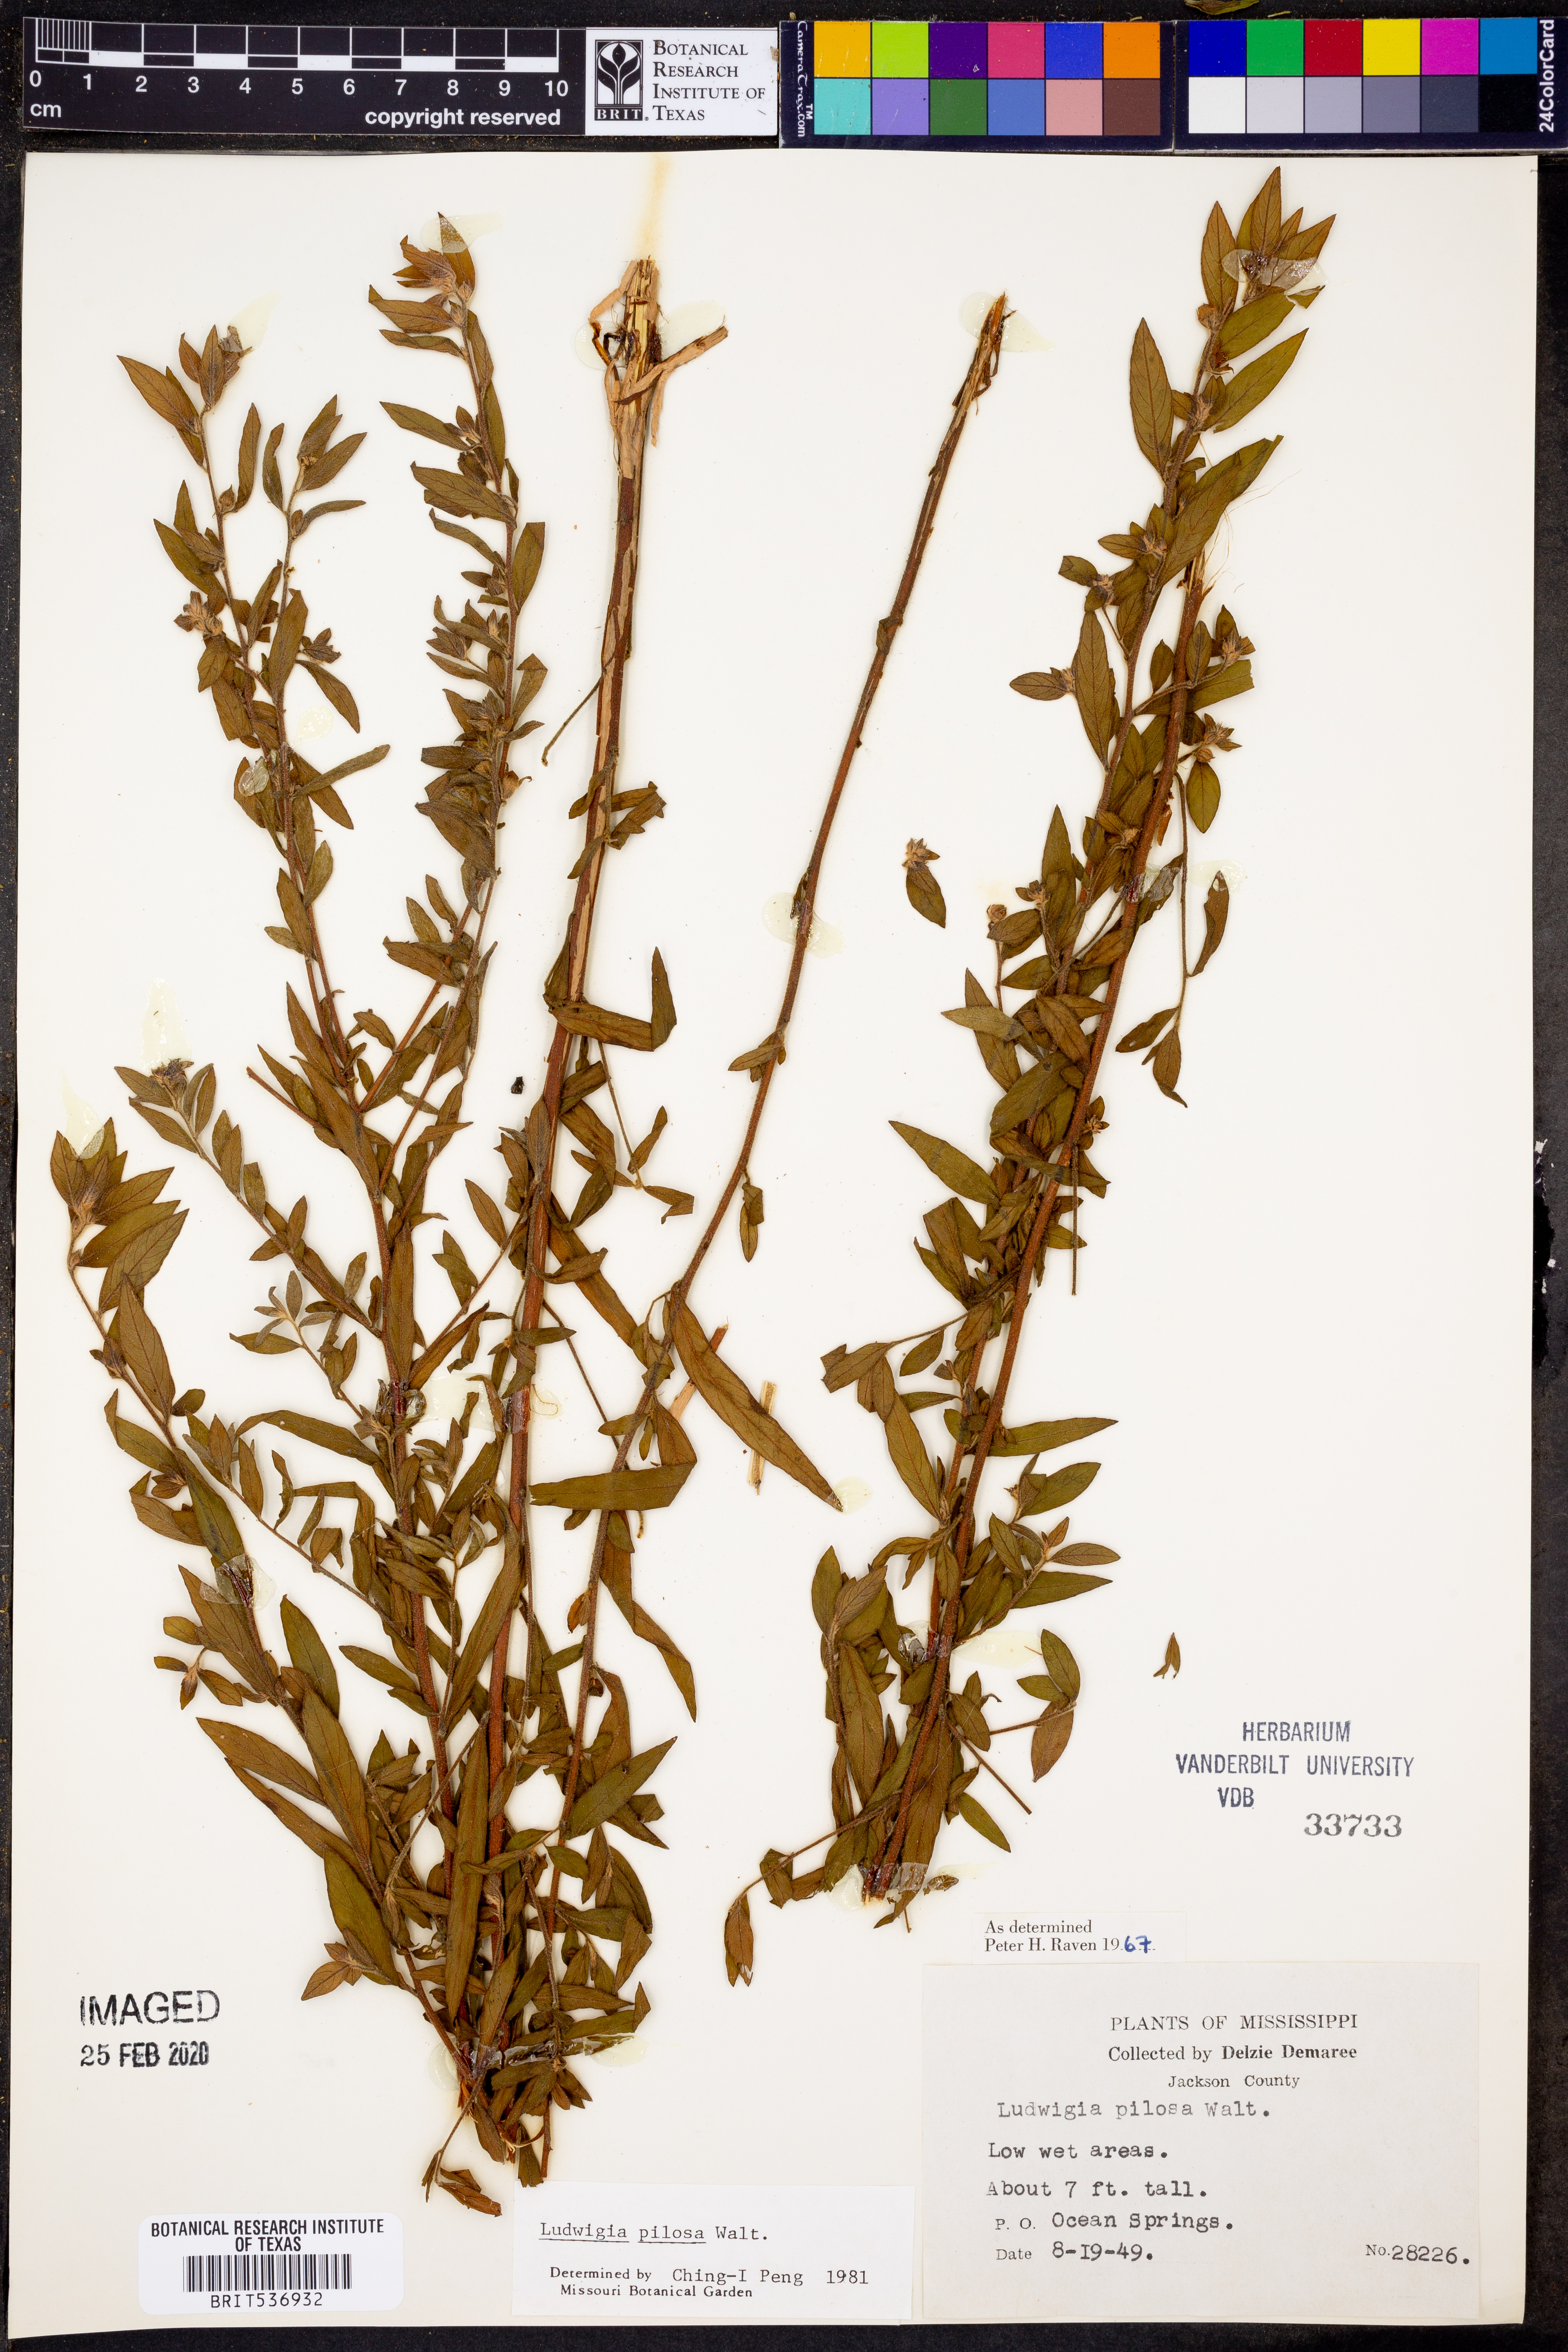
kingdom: Plantae
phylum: Tracheophyta
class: Magnoliopsida
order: Myrtales
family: Onagraceae
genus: Ludwigia
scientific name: Ludwigia pilosa
